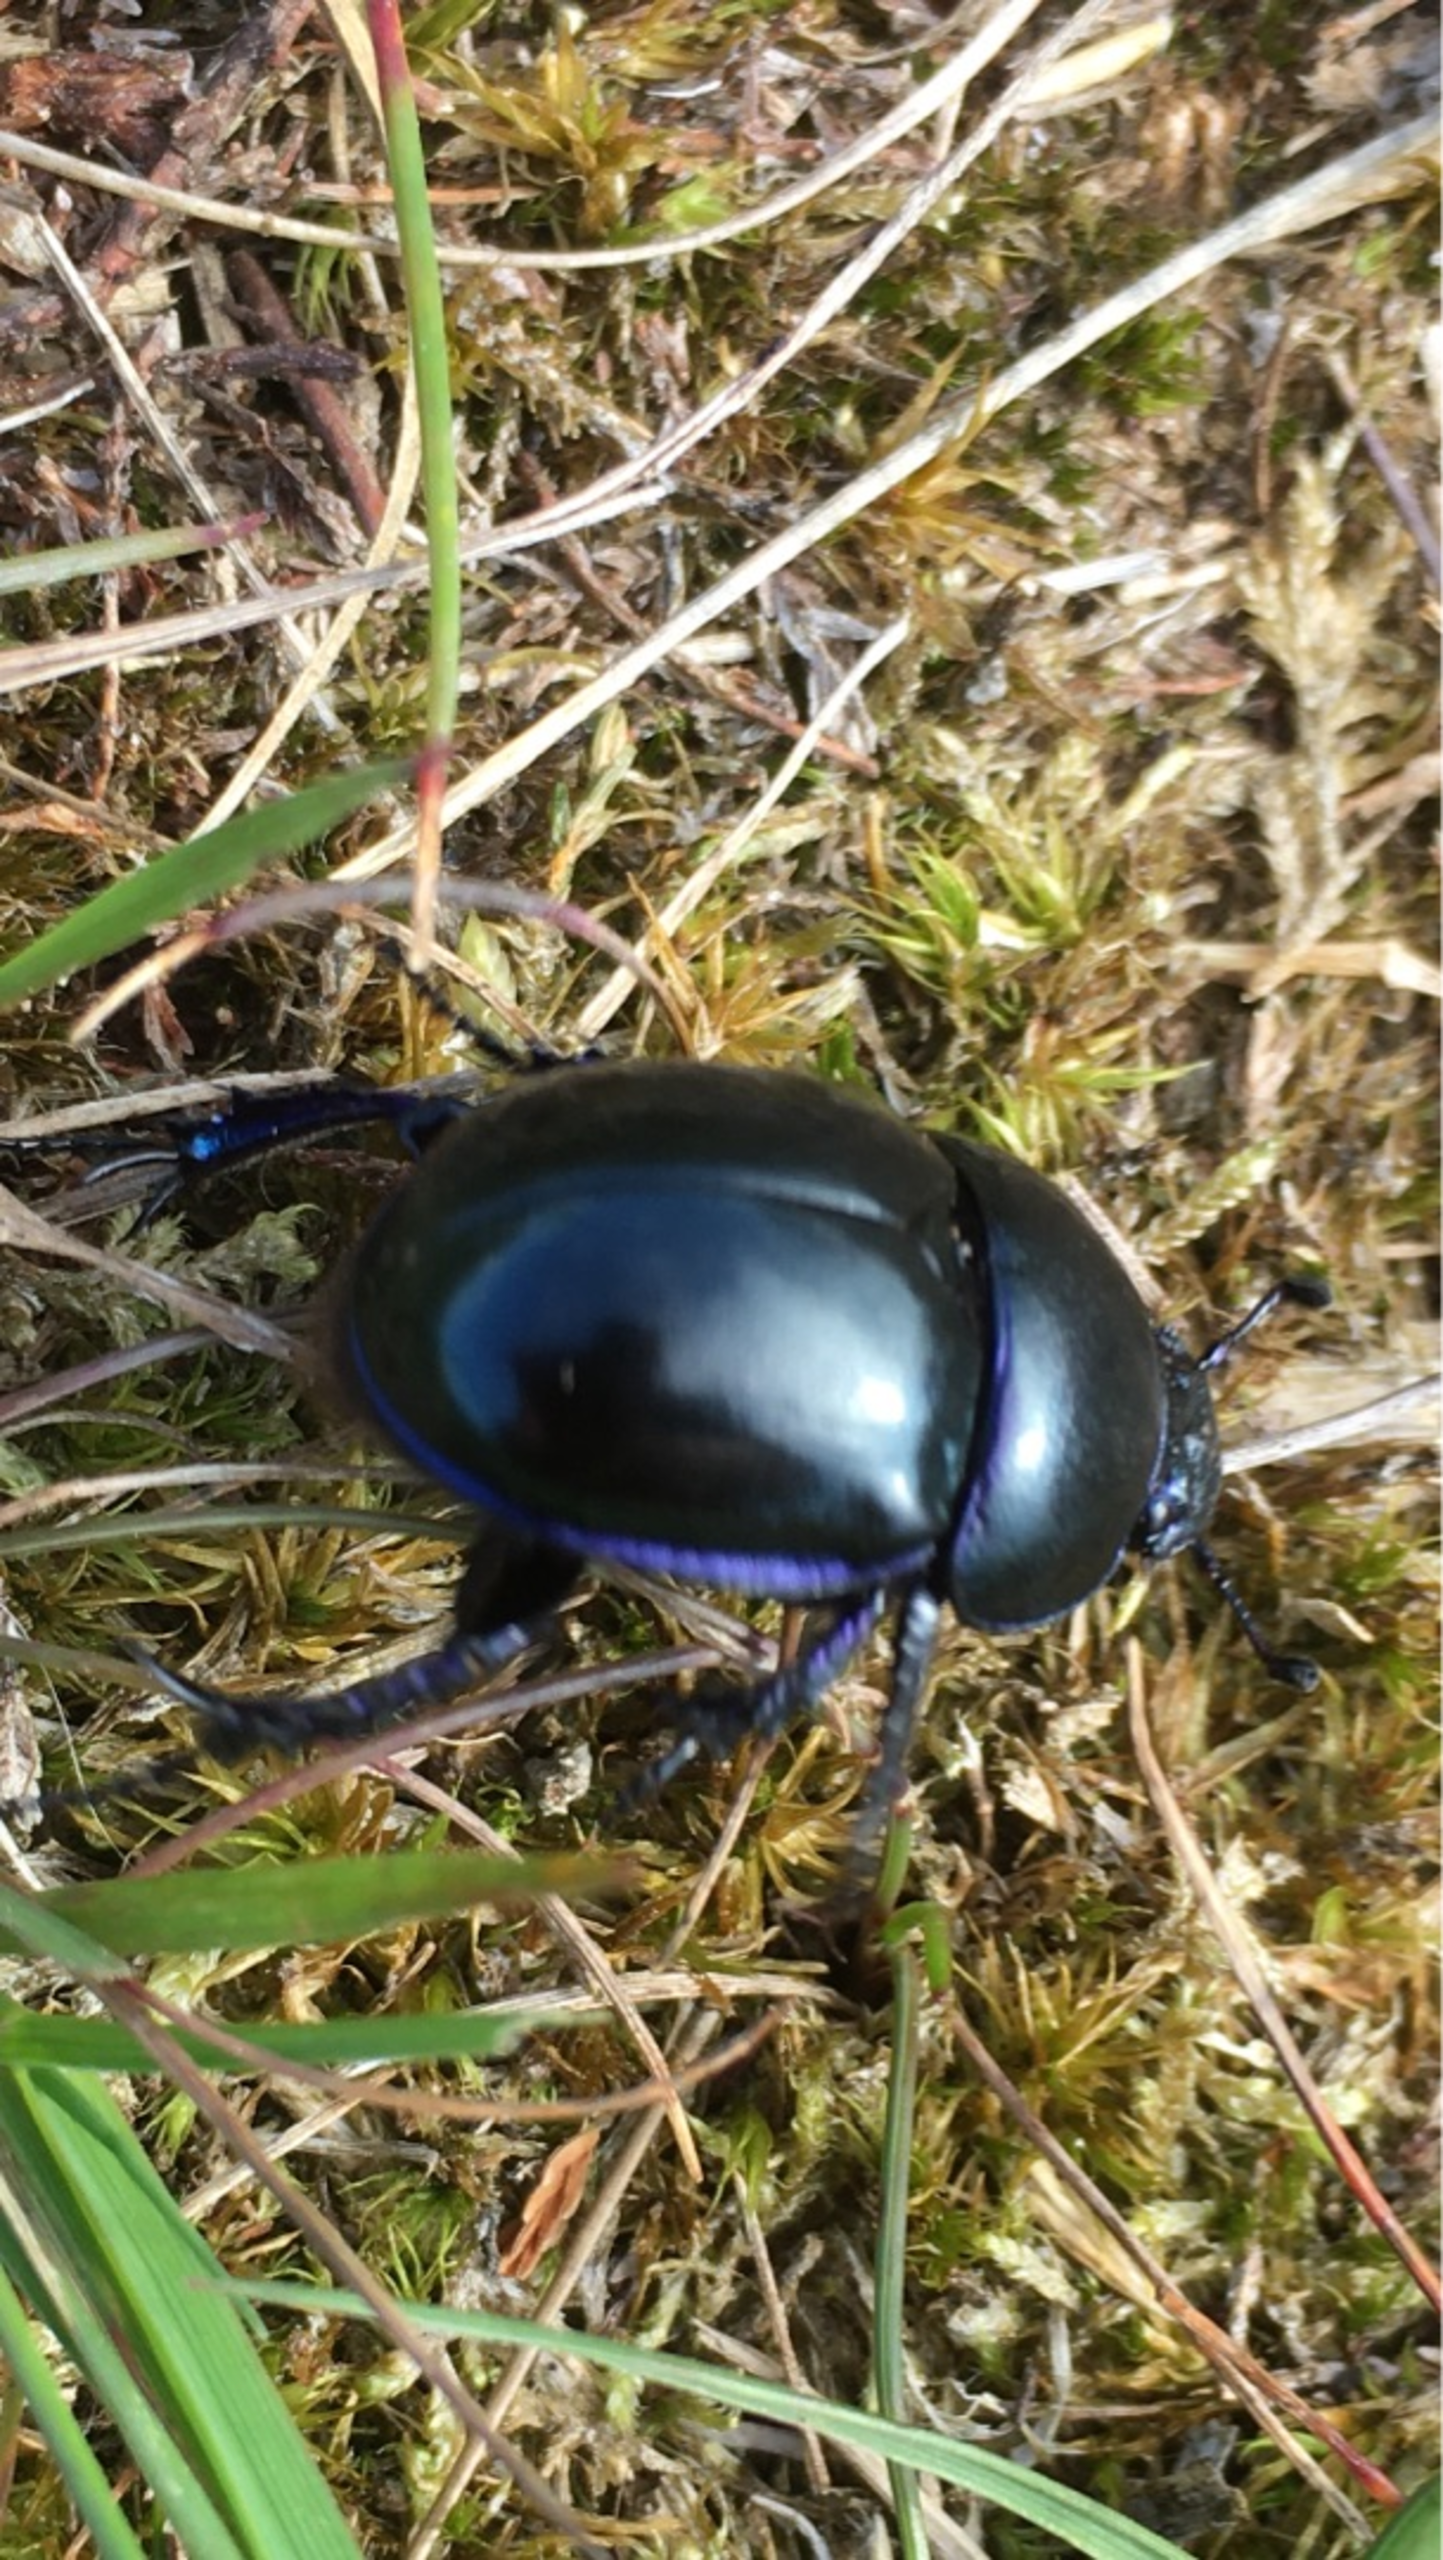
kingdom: Animalia
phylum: Arthropoda
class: Insecta
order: Coleoptera
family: Geotrupidae
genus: Trypocopris
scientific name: Trypocopris vernalis
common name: Glat skarnbasse
